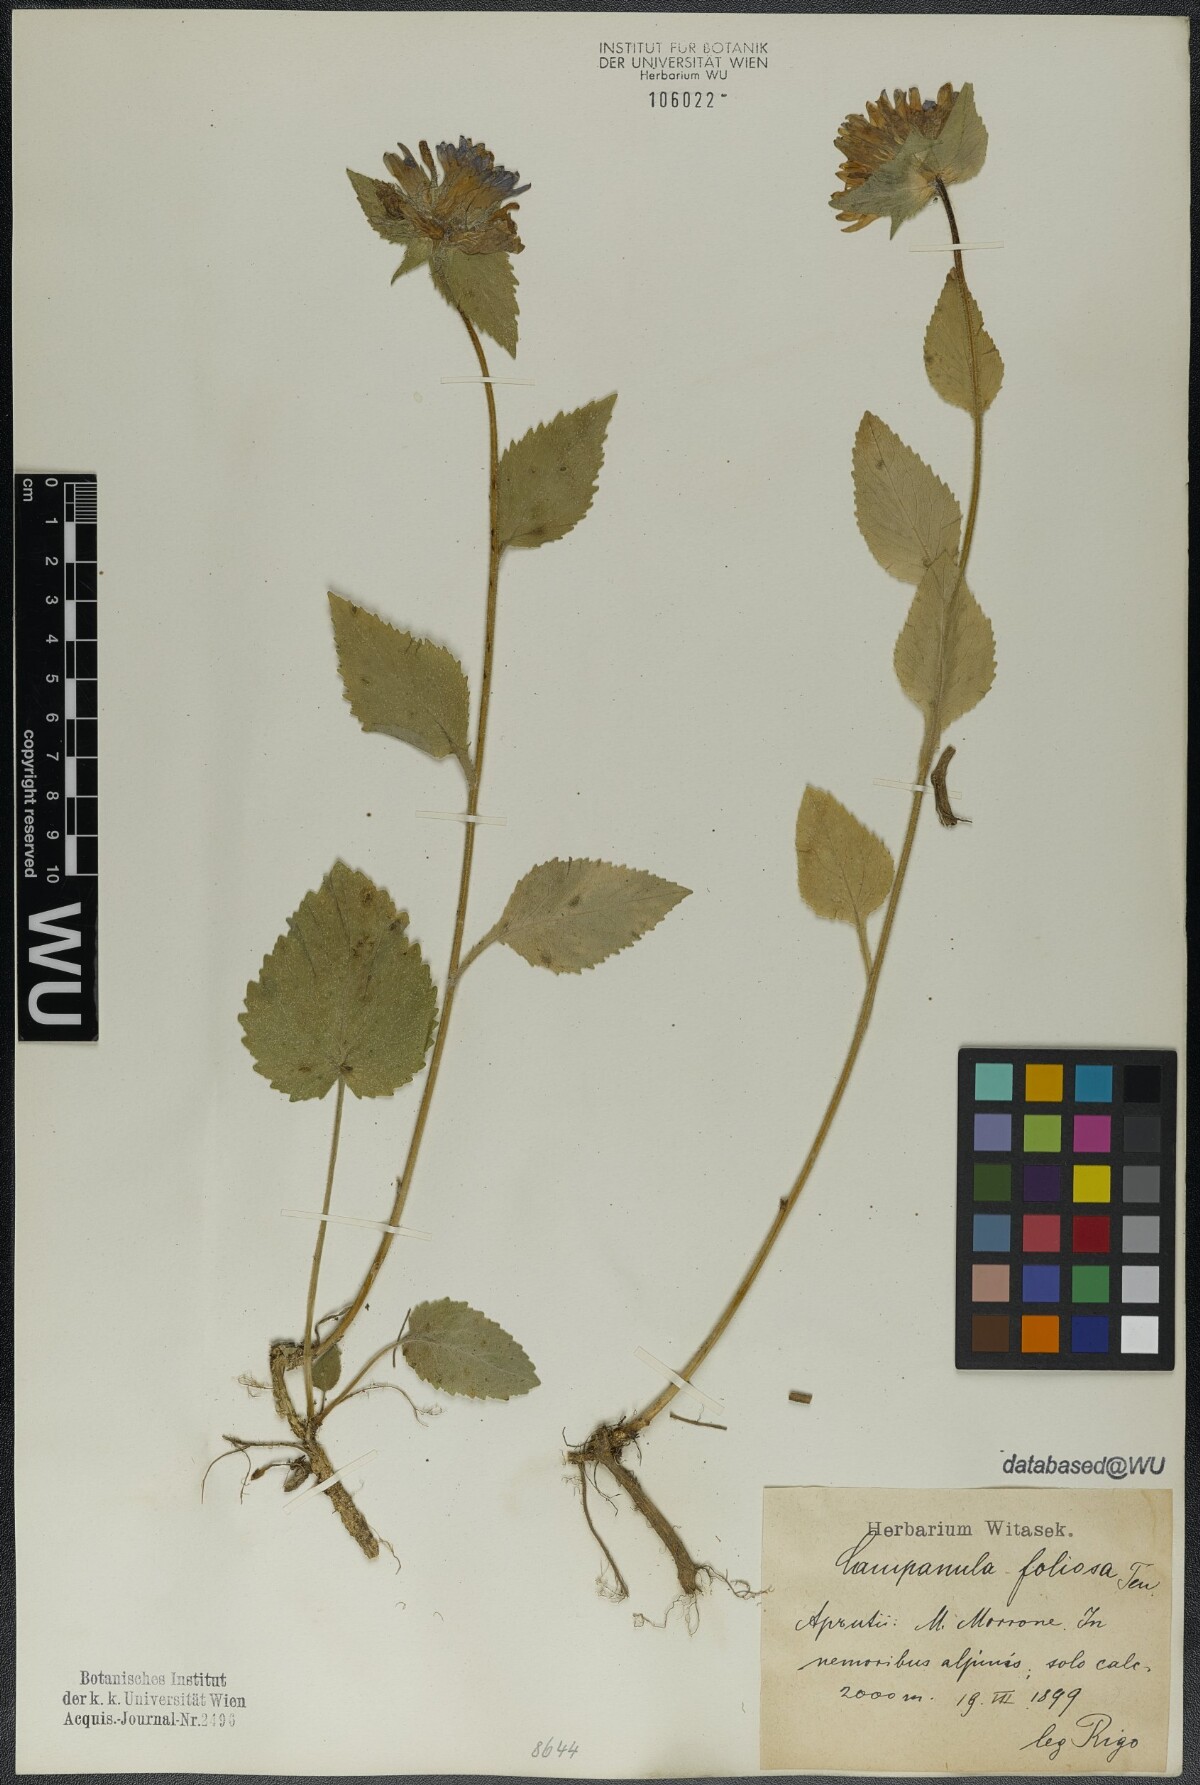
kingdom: Plantae
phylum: Tracheophyta
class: Magnoliopsida
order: Asterales
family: Campanulaceae
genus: Campanula
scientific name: Campanula foliosa
